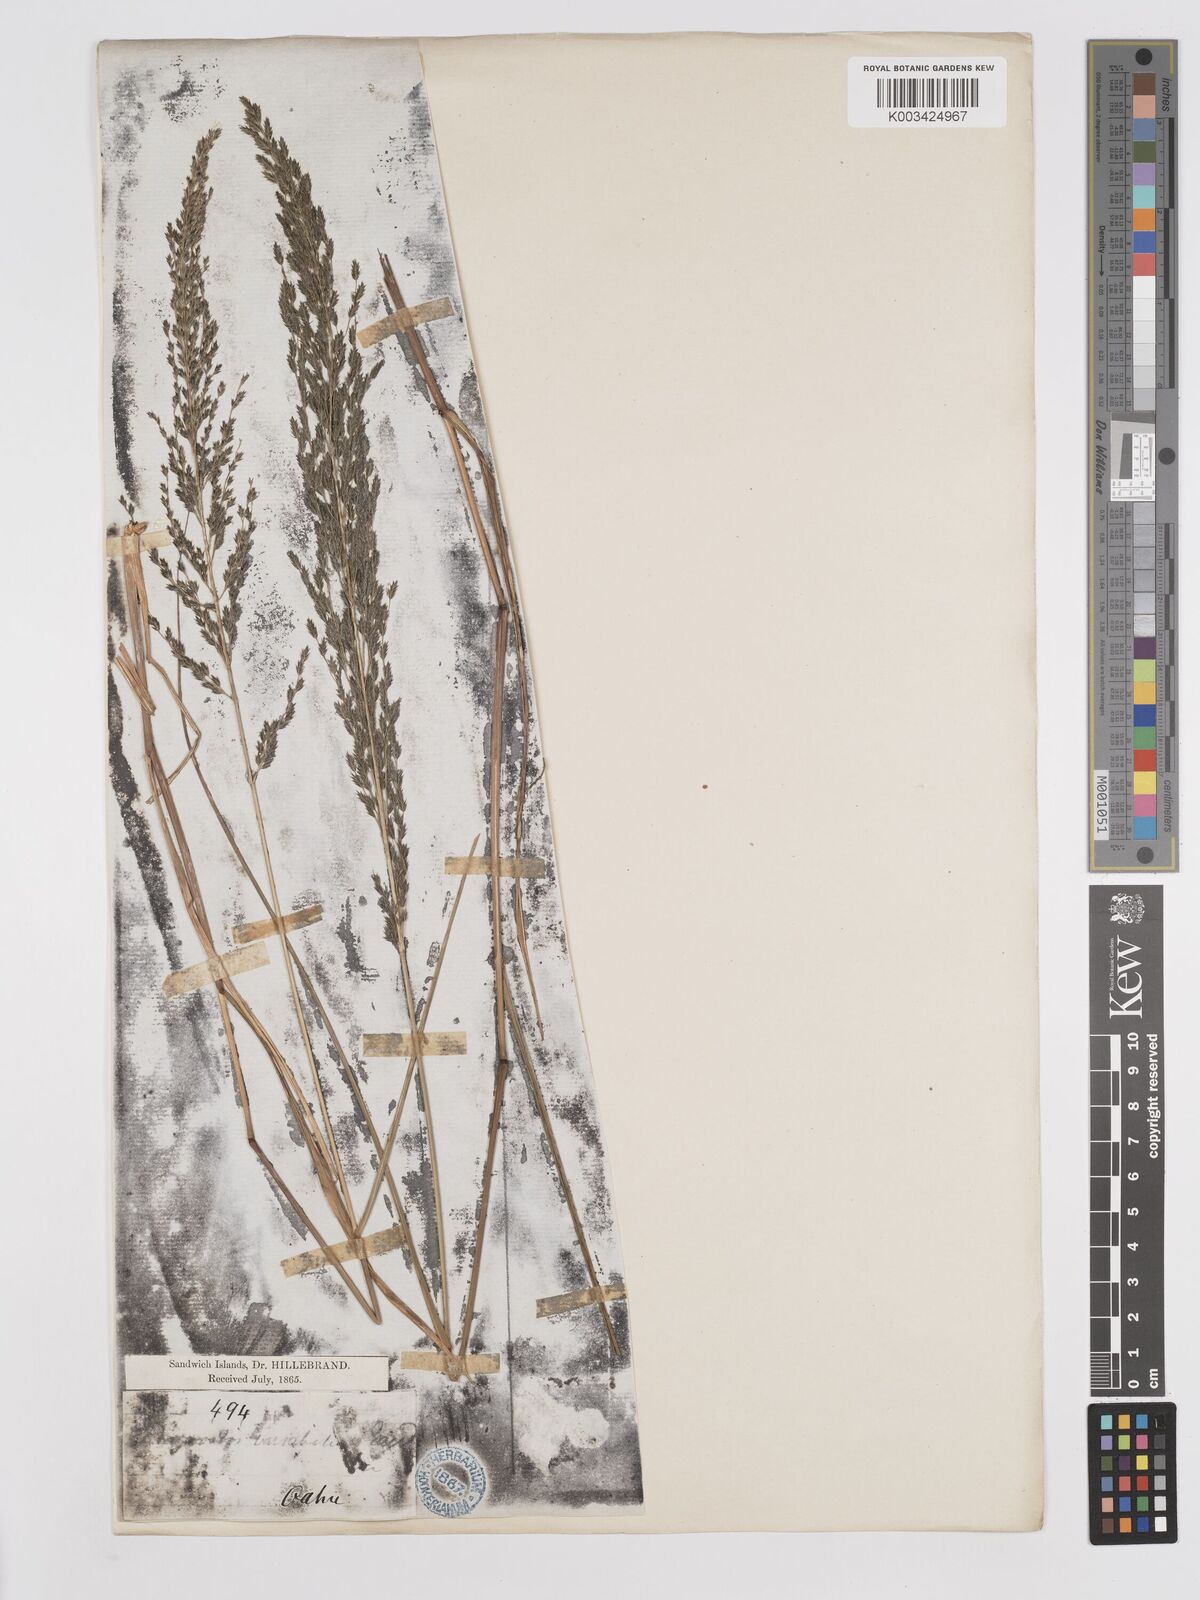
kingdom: Plantae
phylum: Tracheophyta
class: Liliopsida
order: Poales
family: Poaceae
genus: Eragrostis
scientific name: Eragrostis grandis
